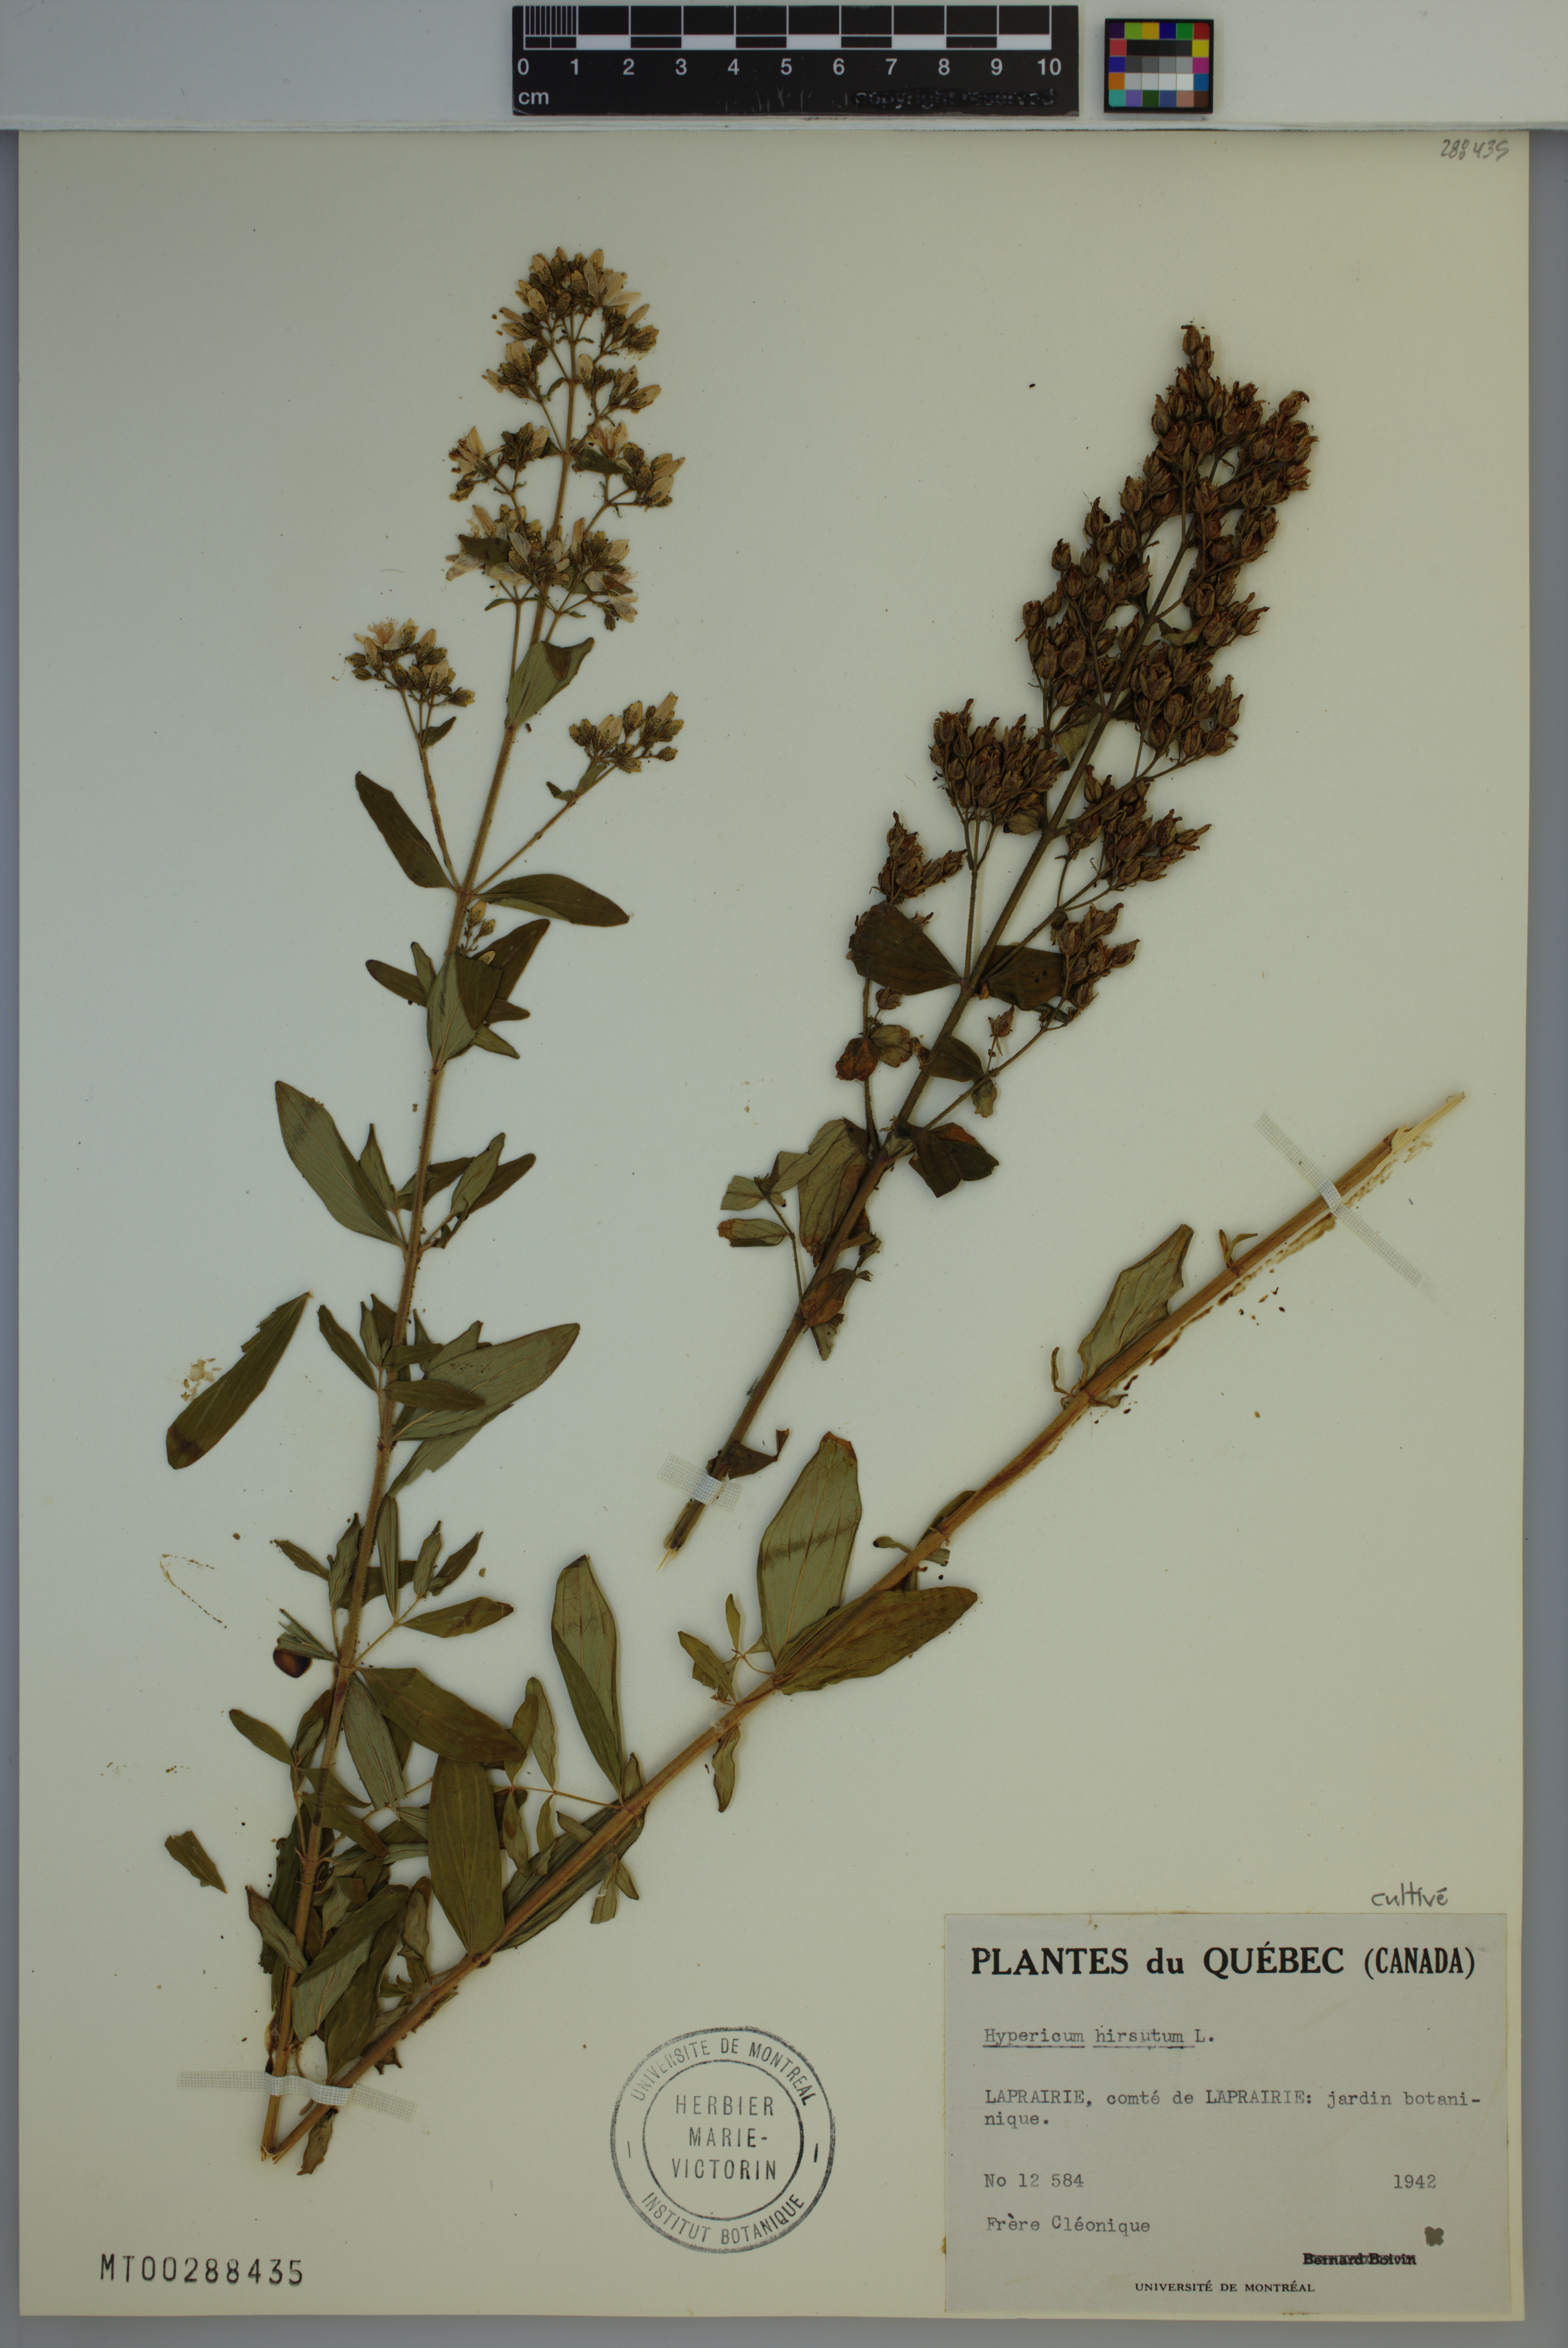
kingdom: Plantae
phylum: Tracheophyta
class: Magnoliopsida
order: Malpighiales
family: Hypericaceae
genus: Hypericum
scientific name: Hypericum hirsutum
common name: Hairy st. john's-wort
